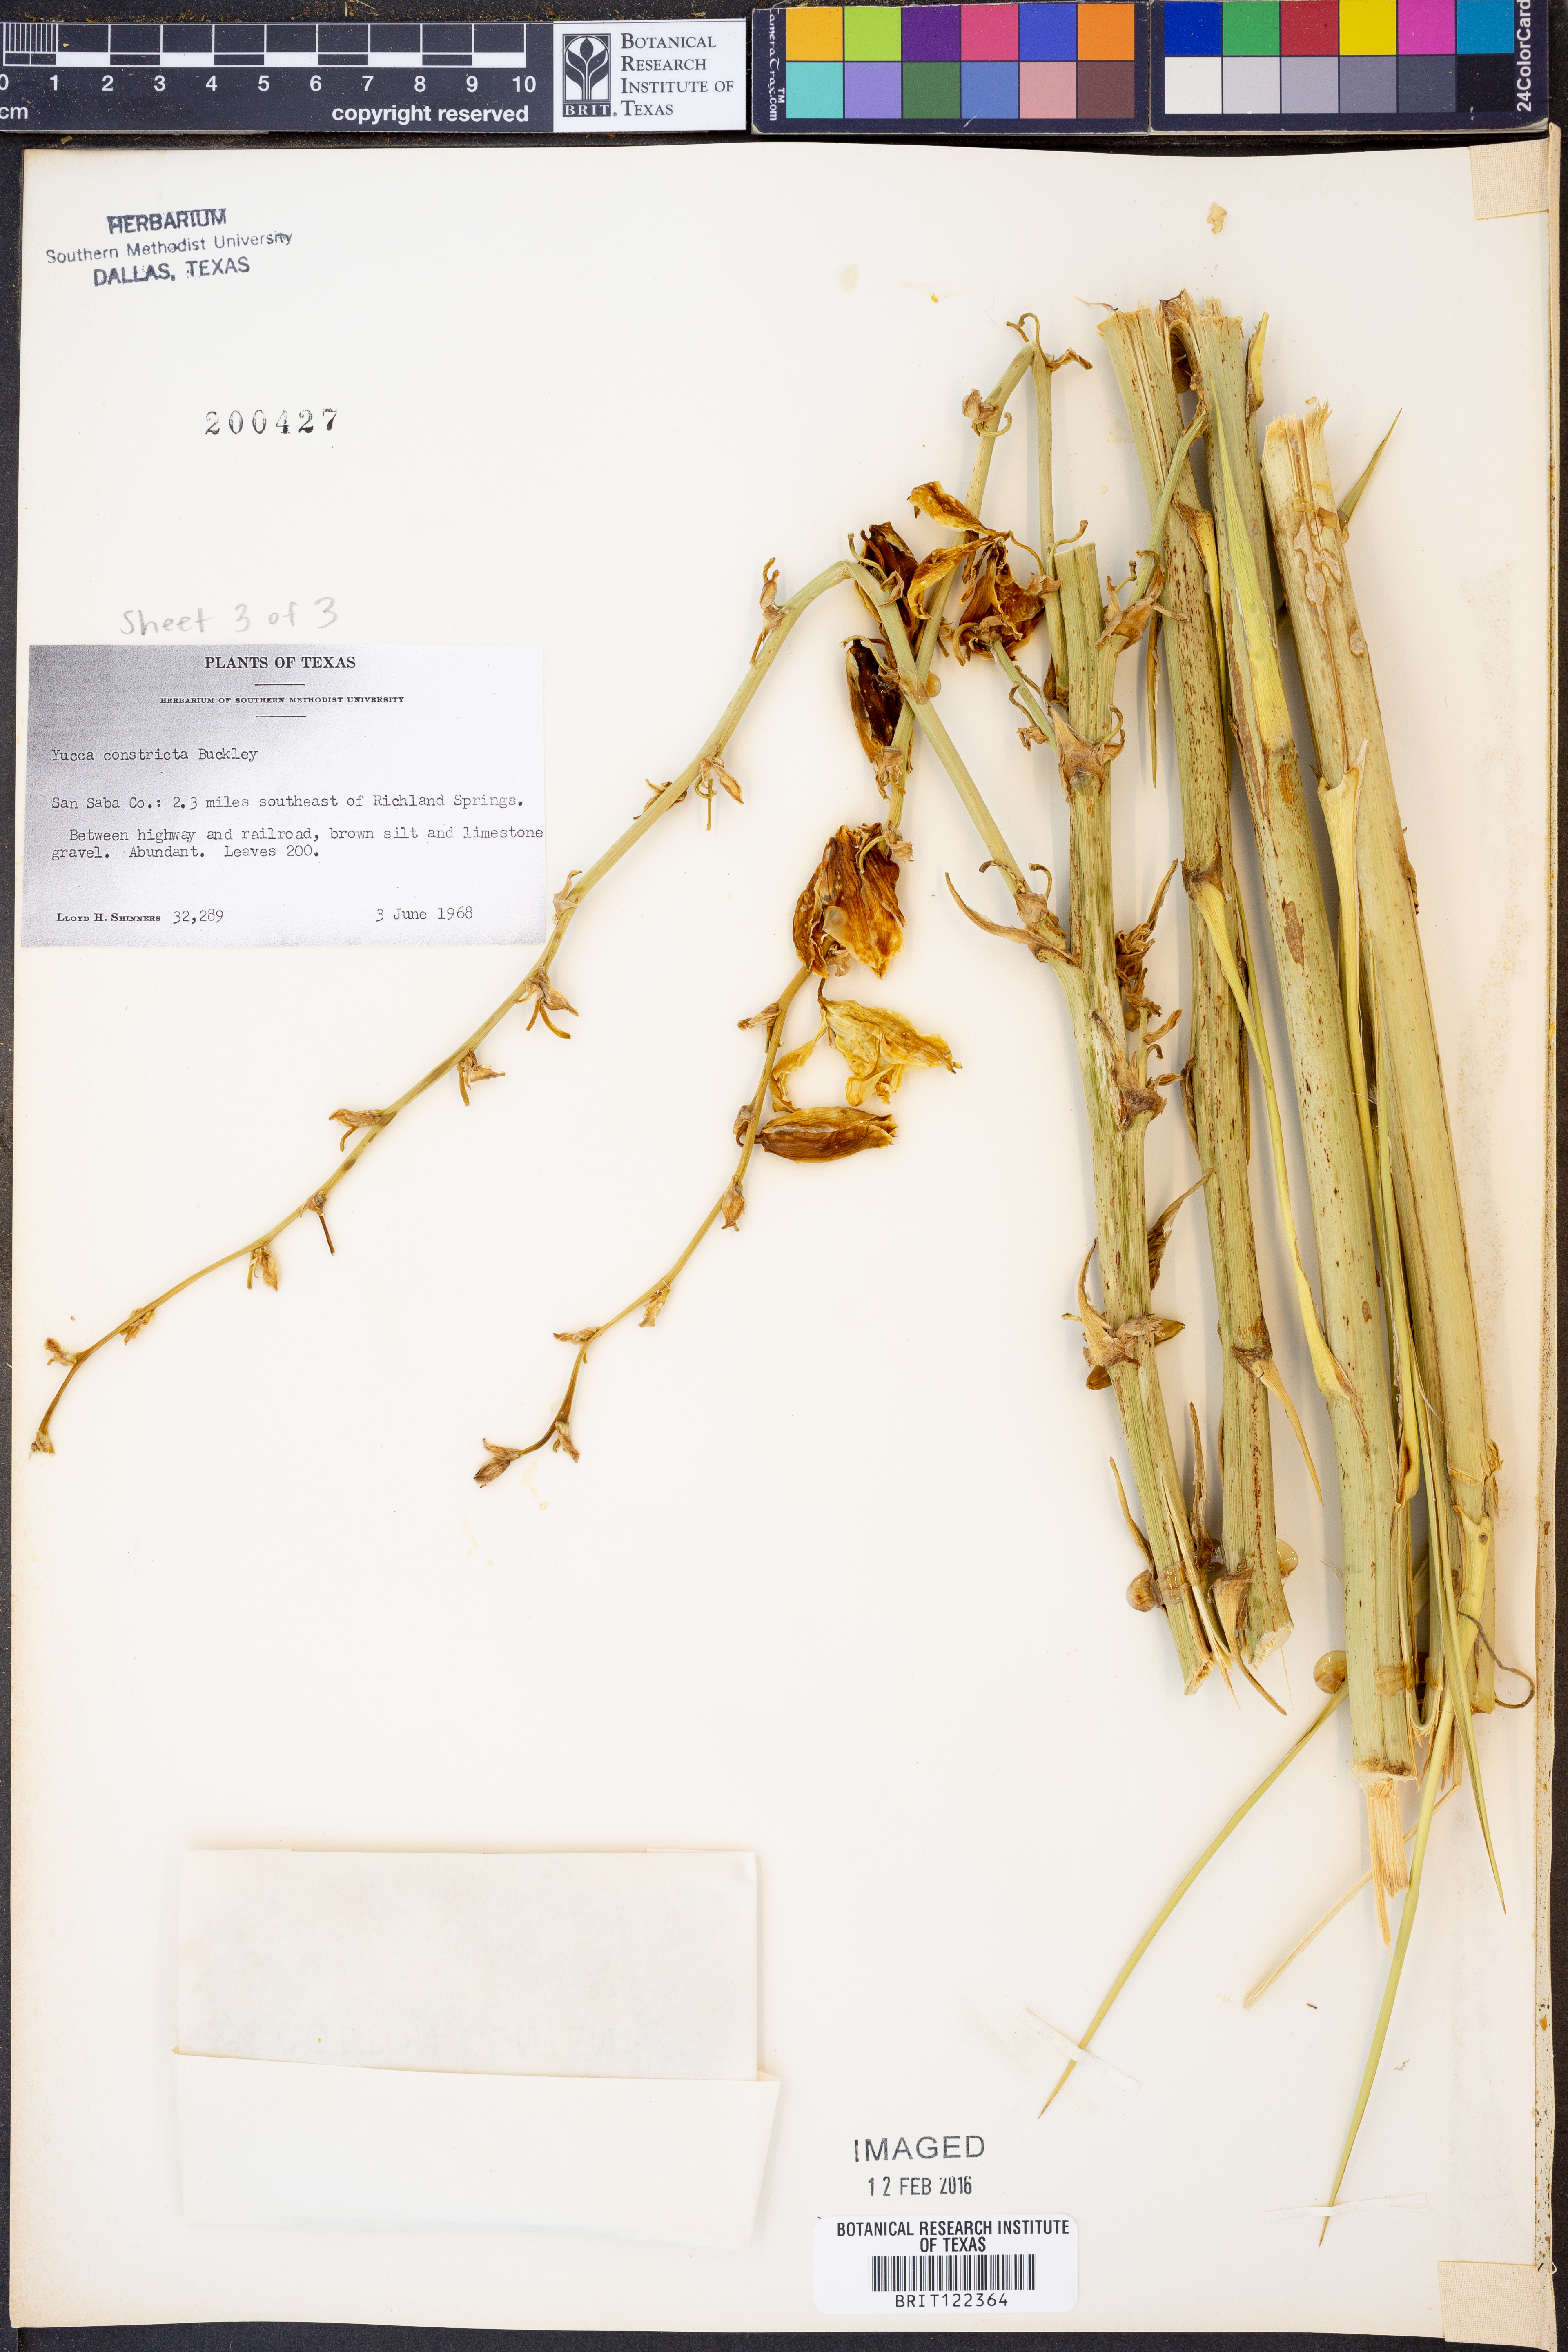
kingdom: Plantae
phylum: Tracheophyta
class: Liliopsida
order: Asparagales
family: Asparagaceae
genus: Yucca
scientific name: Yucca constricta
